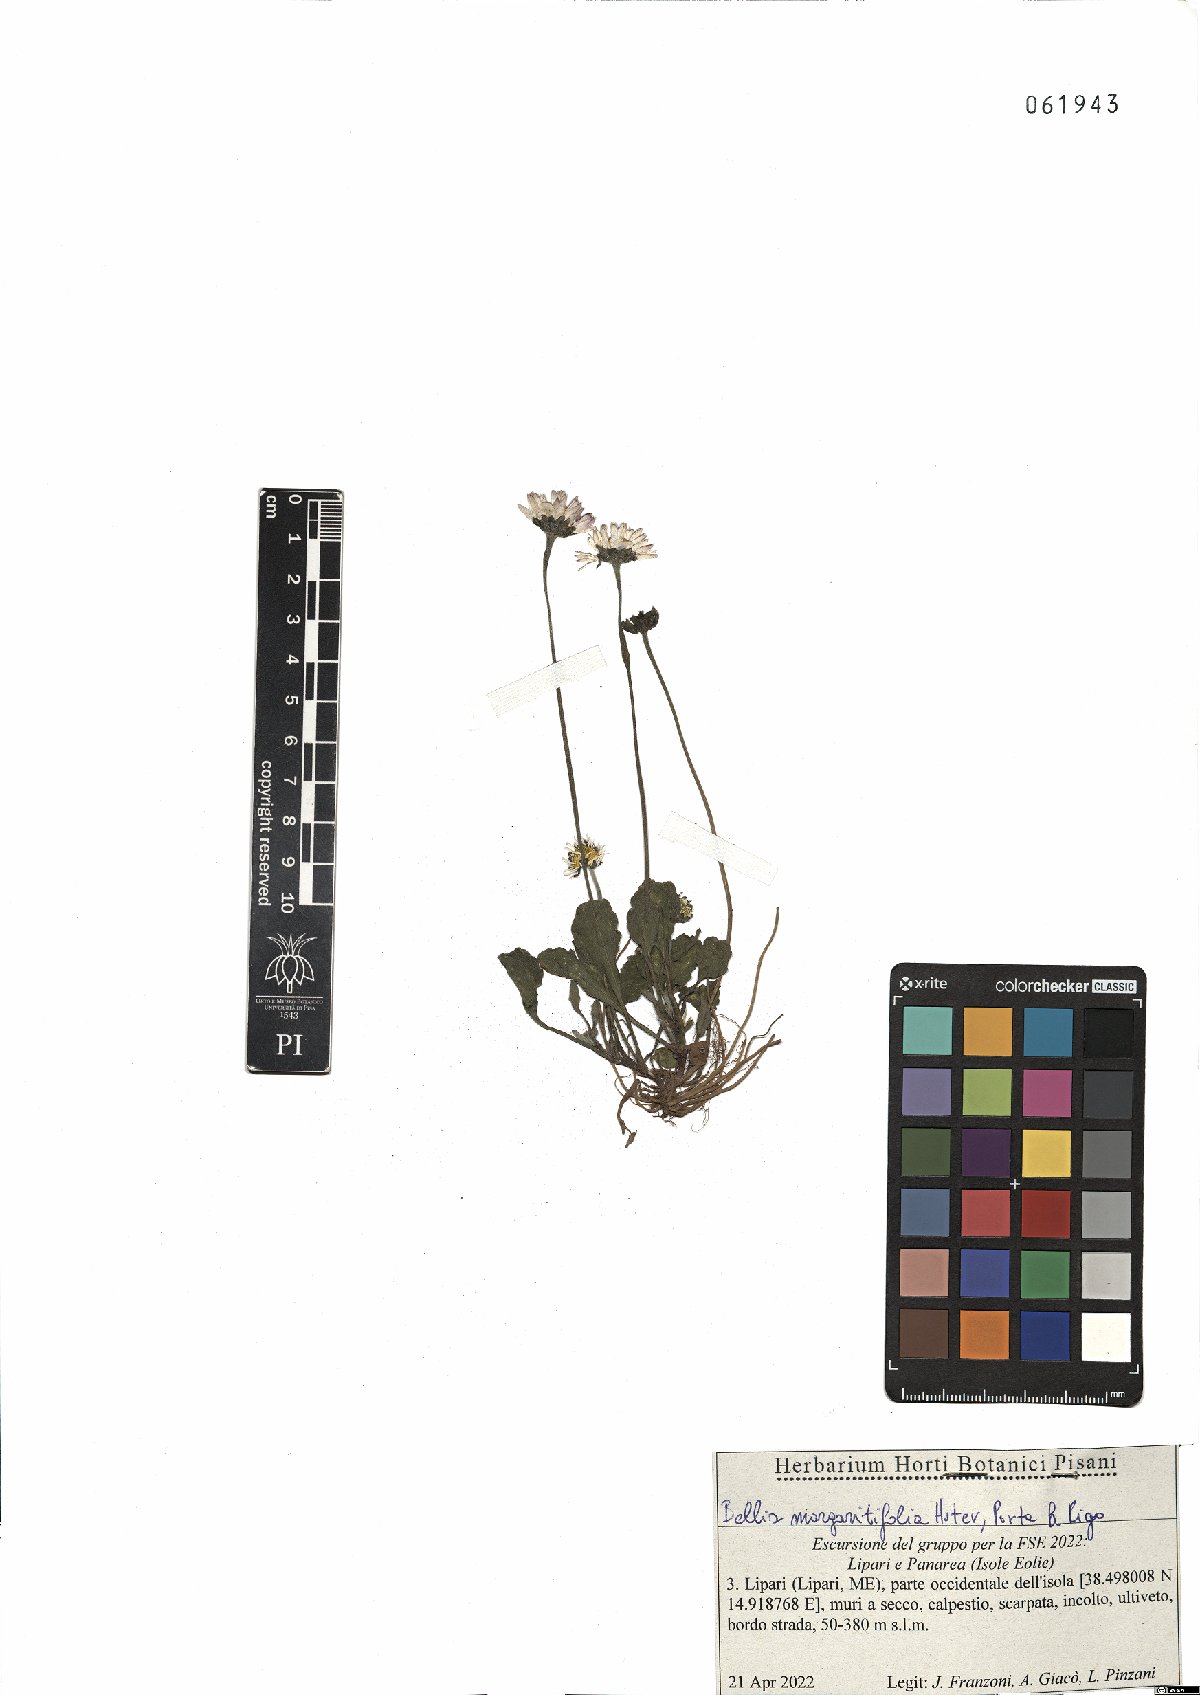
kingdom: Plantae
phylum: Tracheophyta
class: Magnoliopsida
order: Asterales
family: Asteraceae
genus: Bellis
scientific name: Bellis margaritifolia
